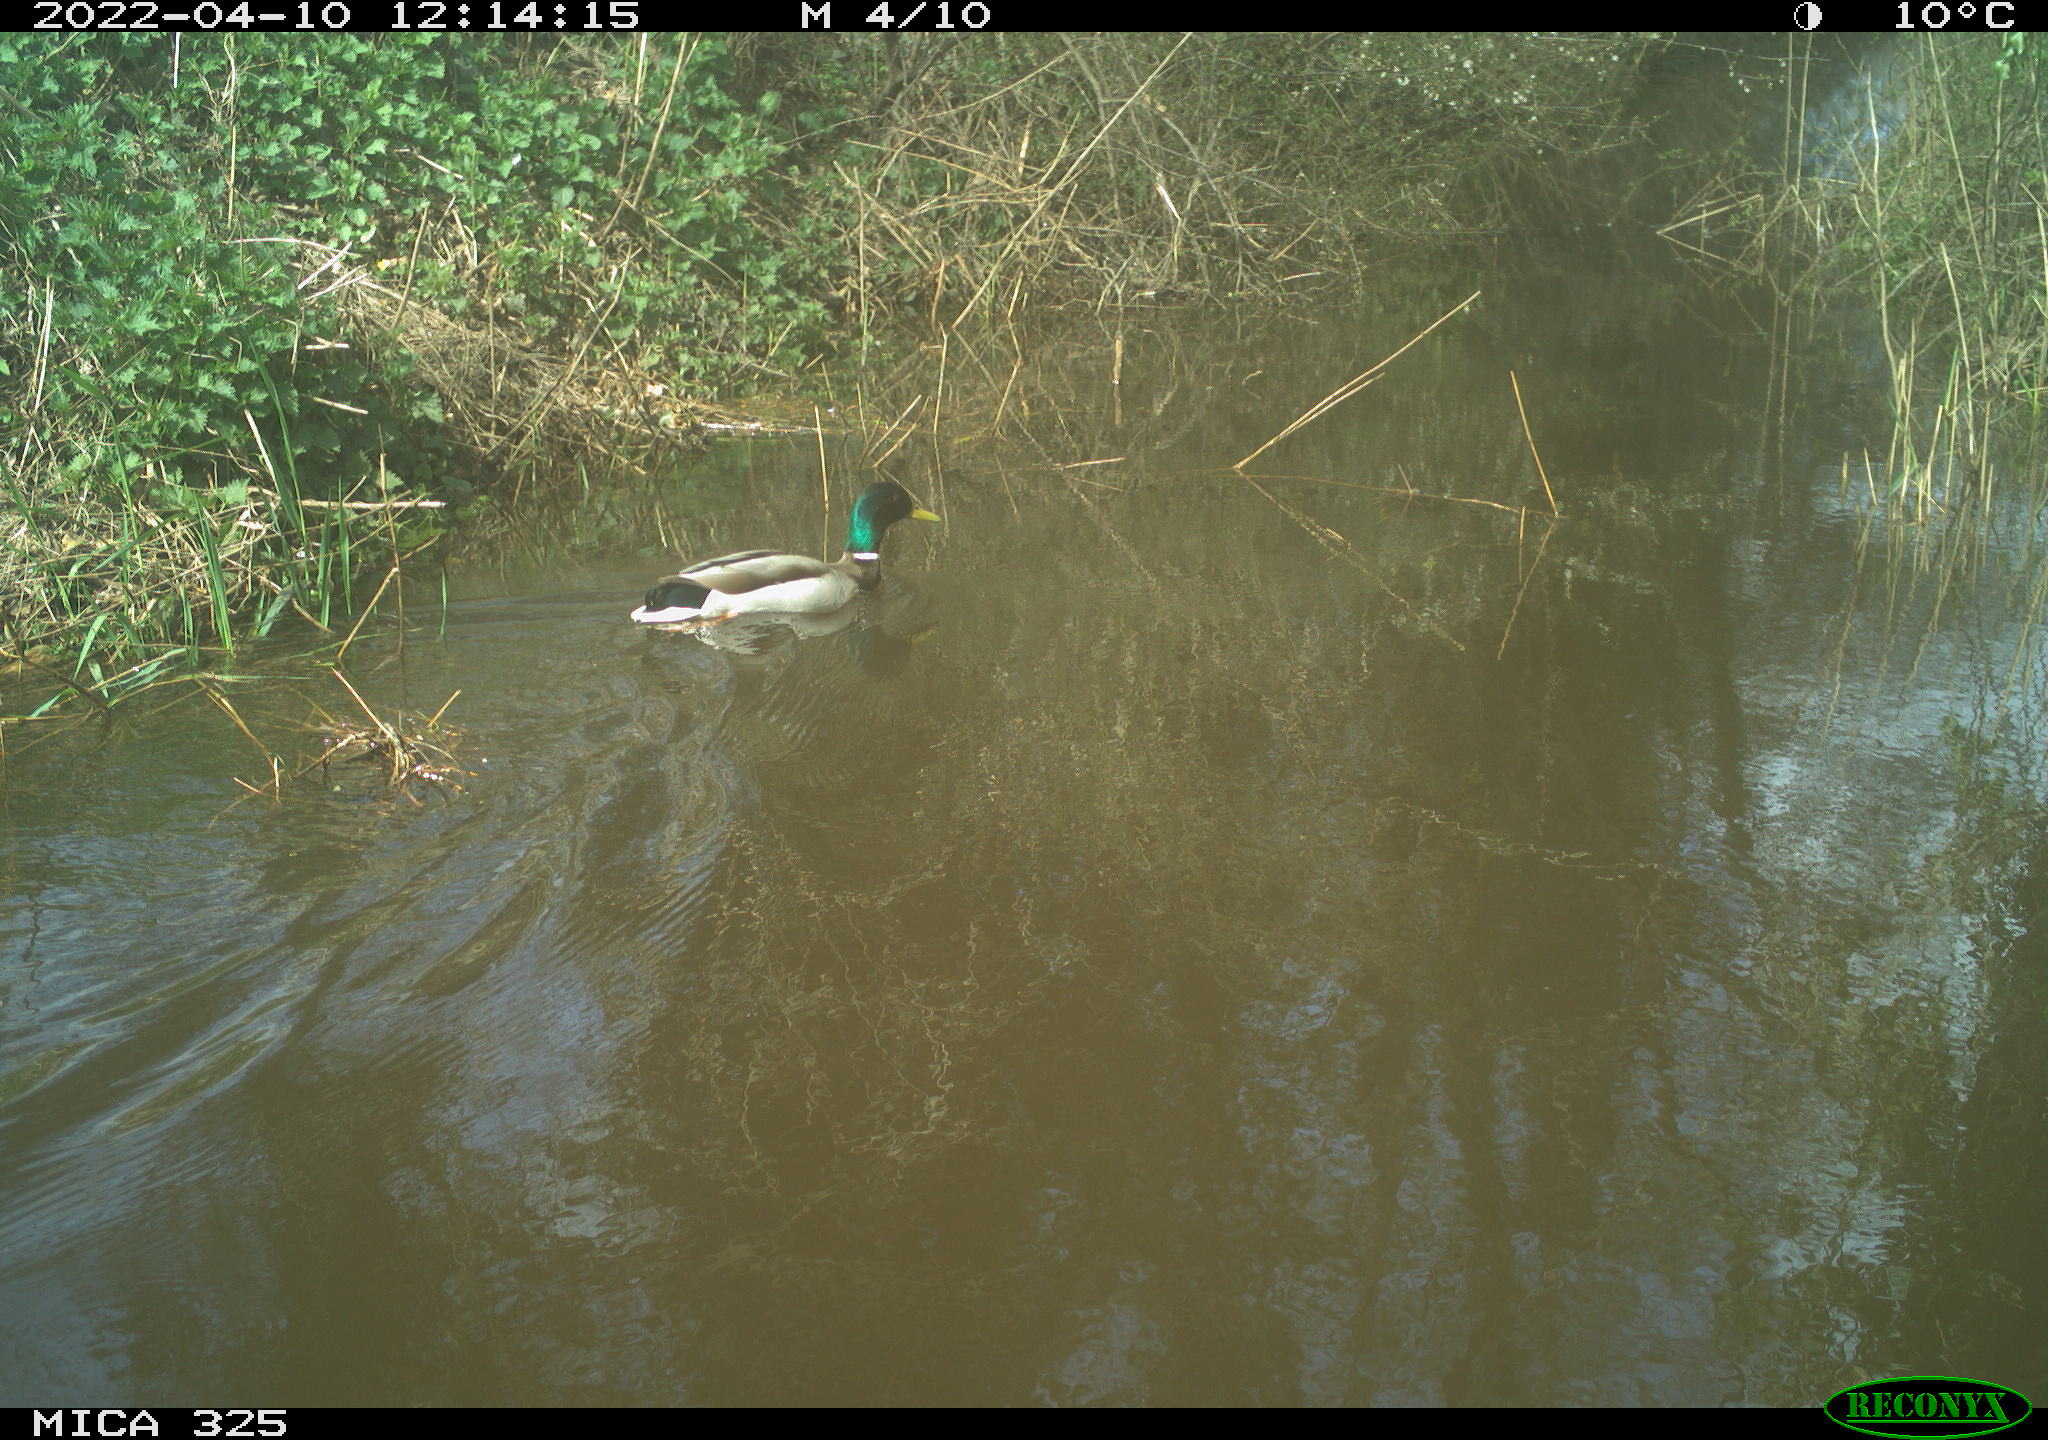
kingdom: Animalia
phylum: Chordata
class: Aves
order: Anseriformes
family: Anatidae
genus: Anas
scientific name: Anas platyrhynchos
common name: Mallard
